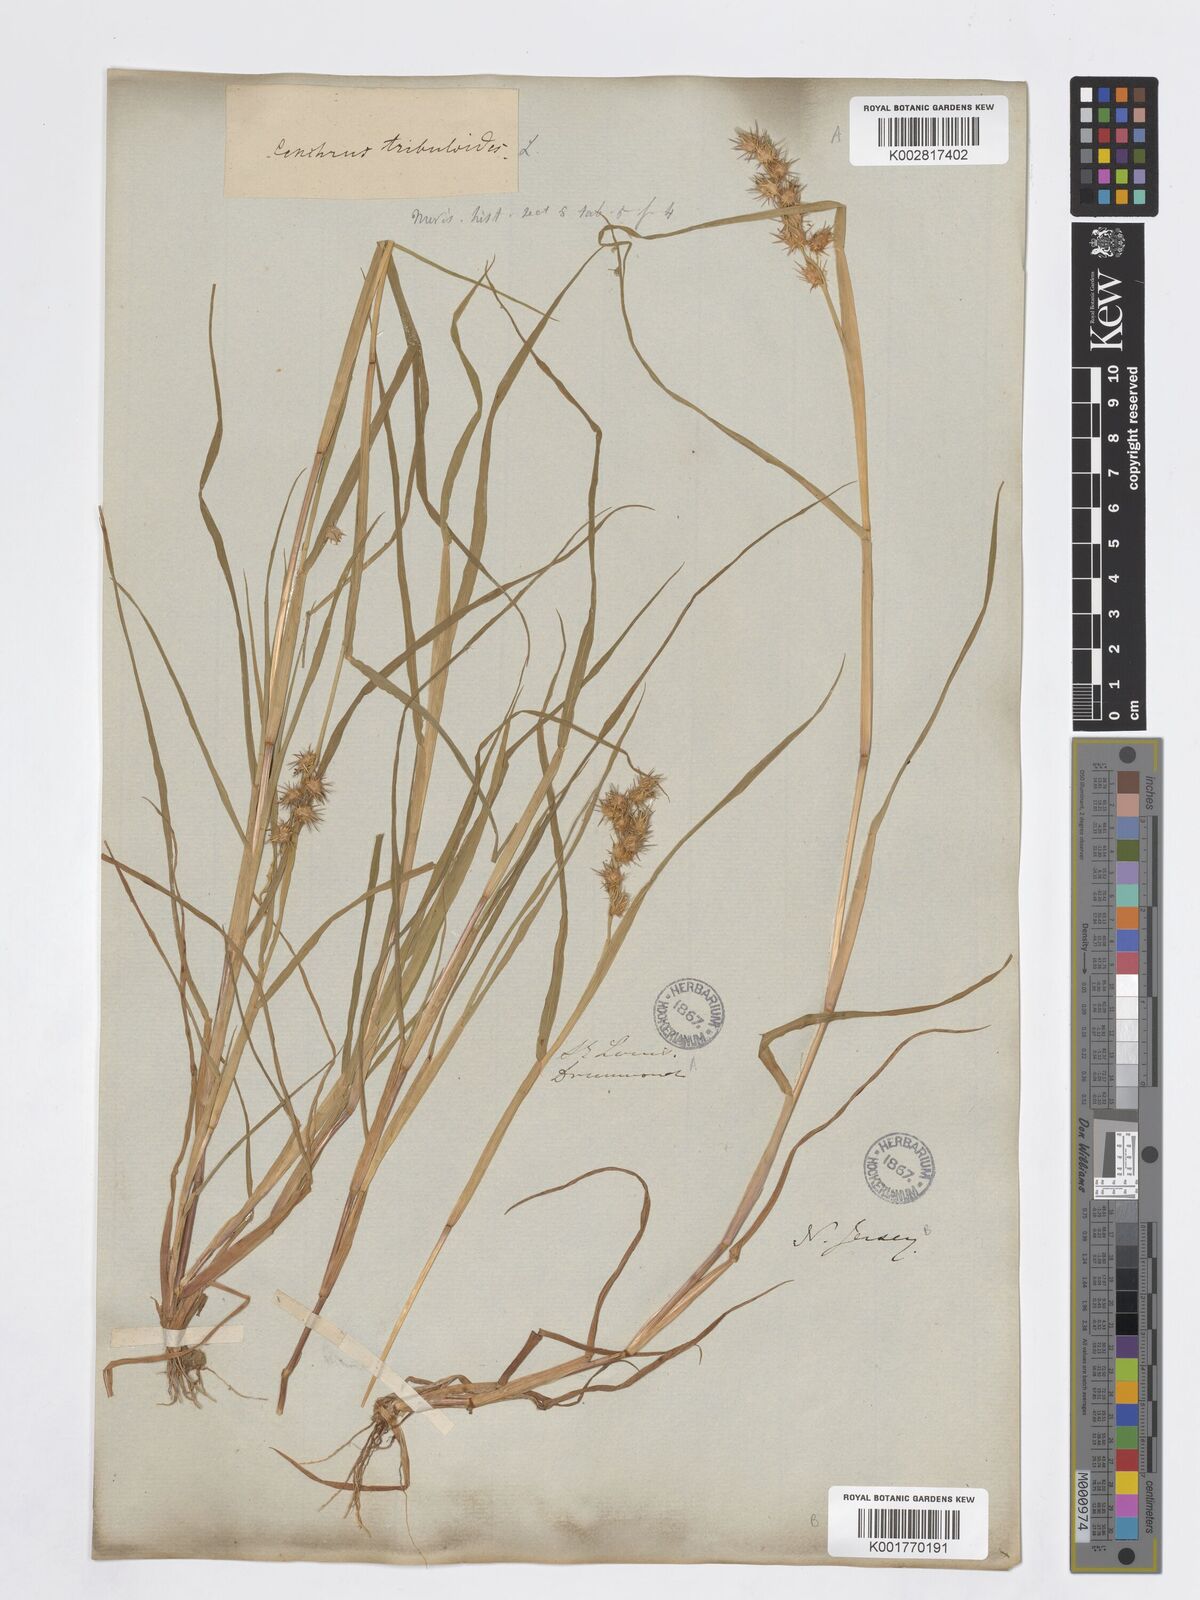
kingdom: Plantae
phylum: Tracheophyta
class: Liliopsida
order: Poales
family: Poaceae
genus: Cenchrus
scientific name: Cenchrus tribuloides
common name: Dune sandbur
